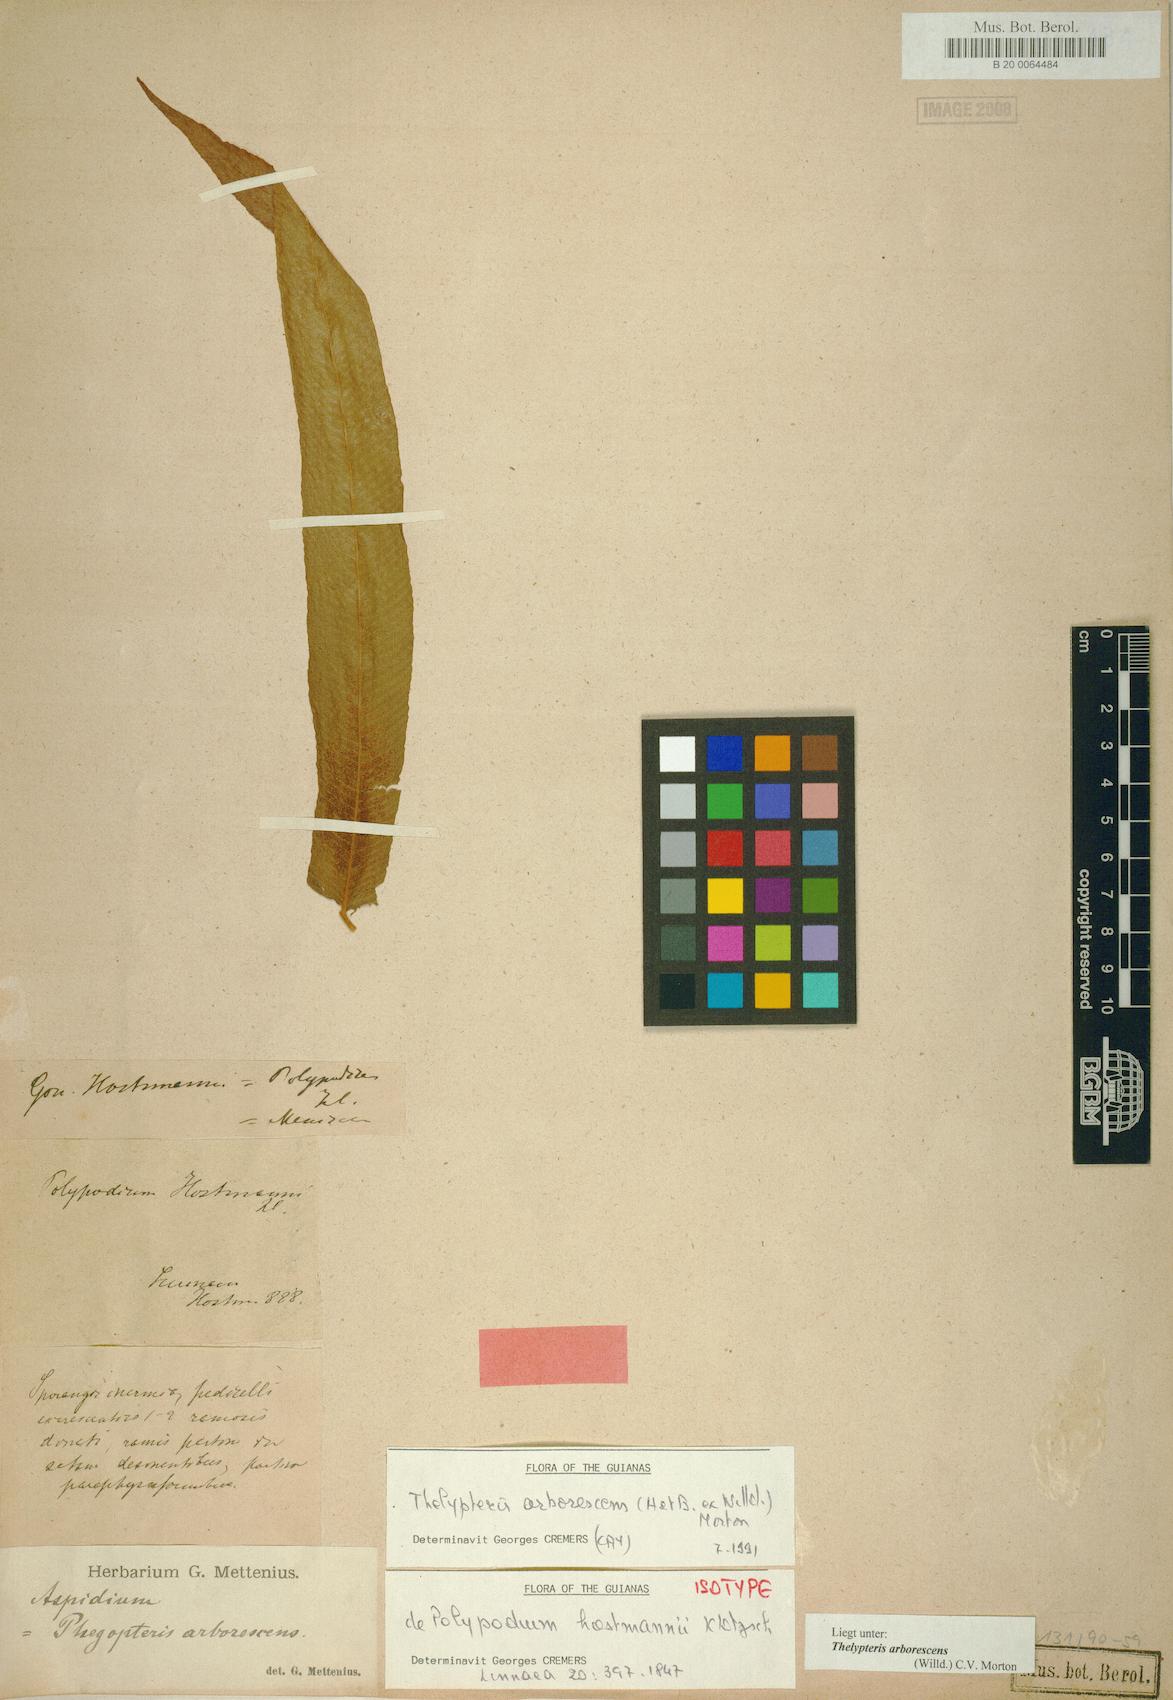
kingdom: Plantae
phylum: Tracheophyta
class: Polypodiopsida
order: Polypodiales
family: Thelypteridaceae
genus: Meniscium
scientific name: Meniscium arborescens
